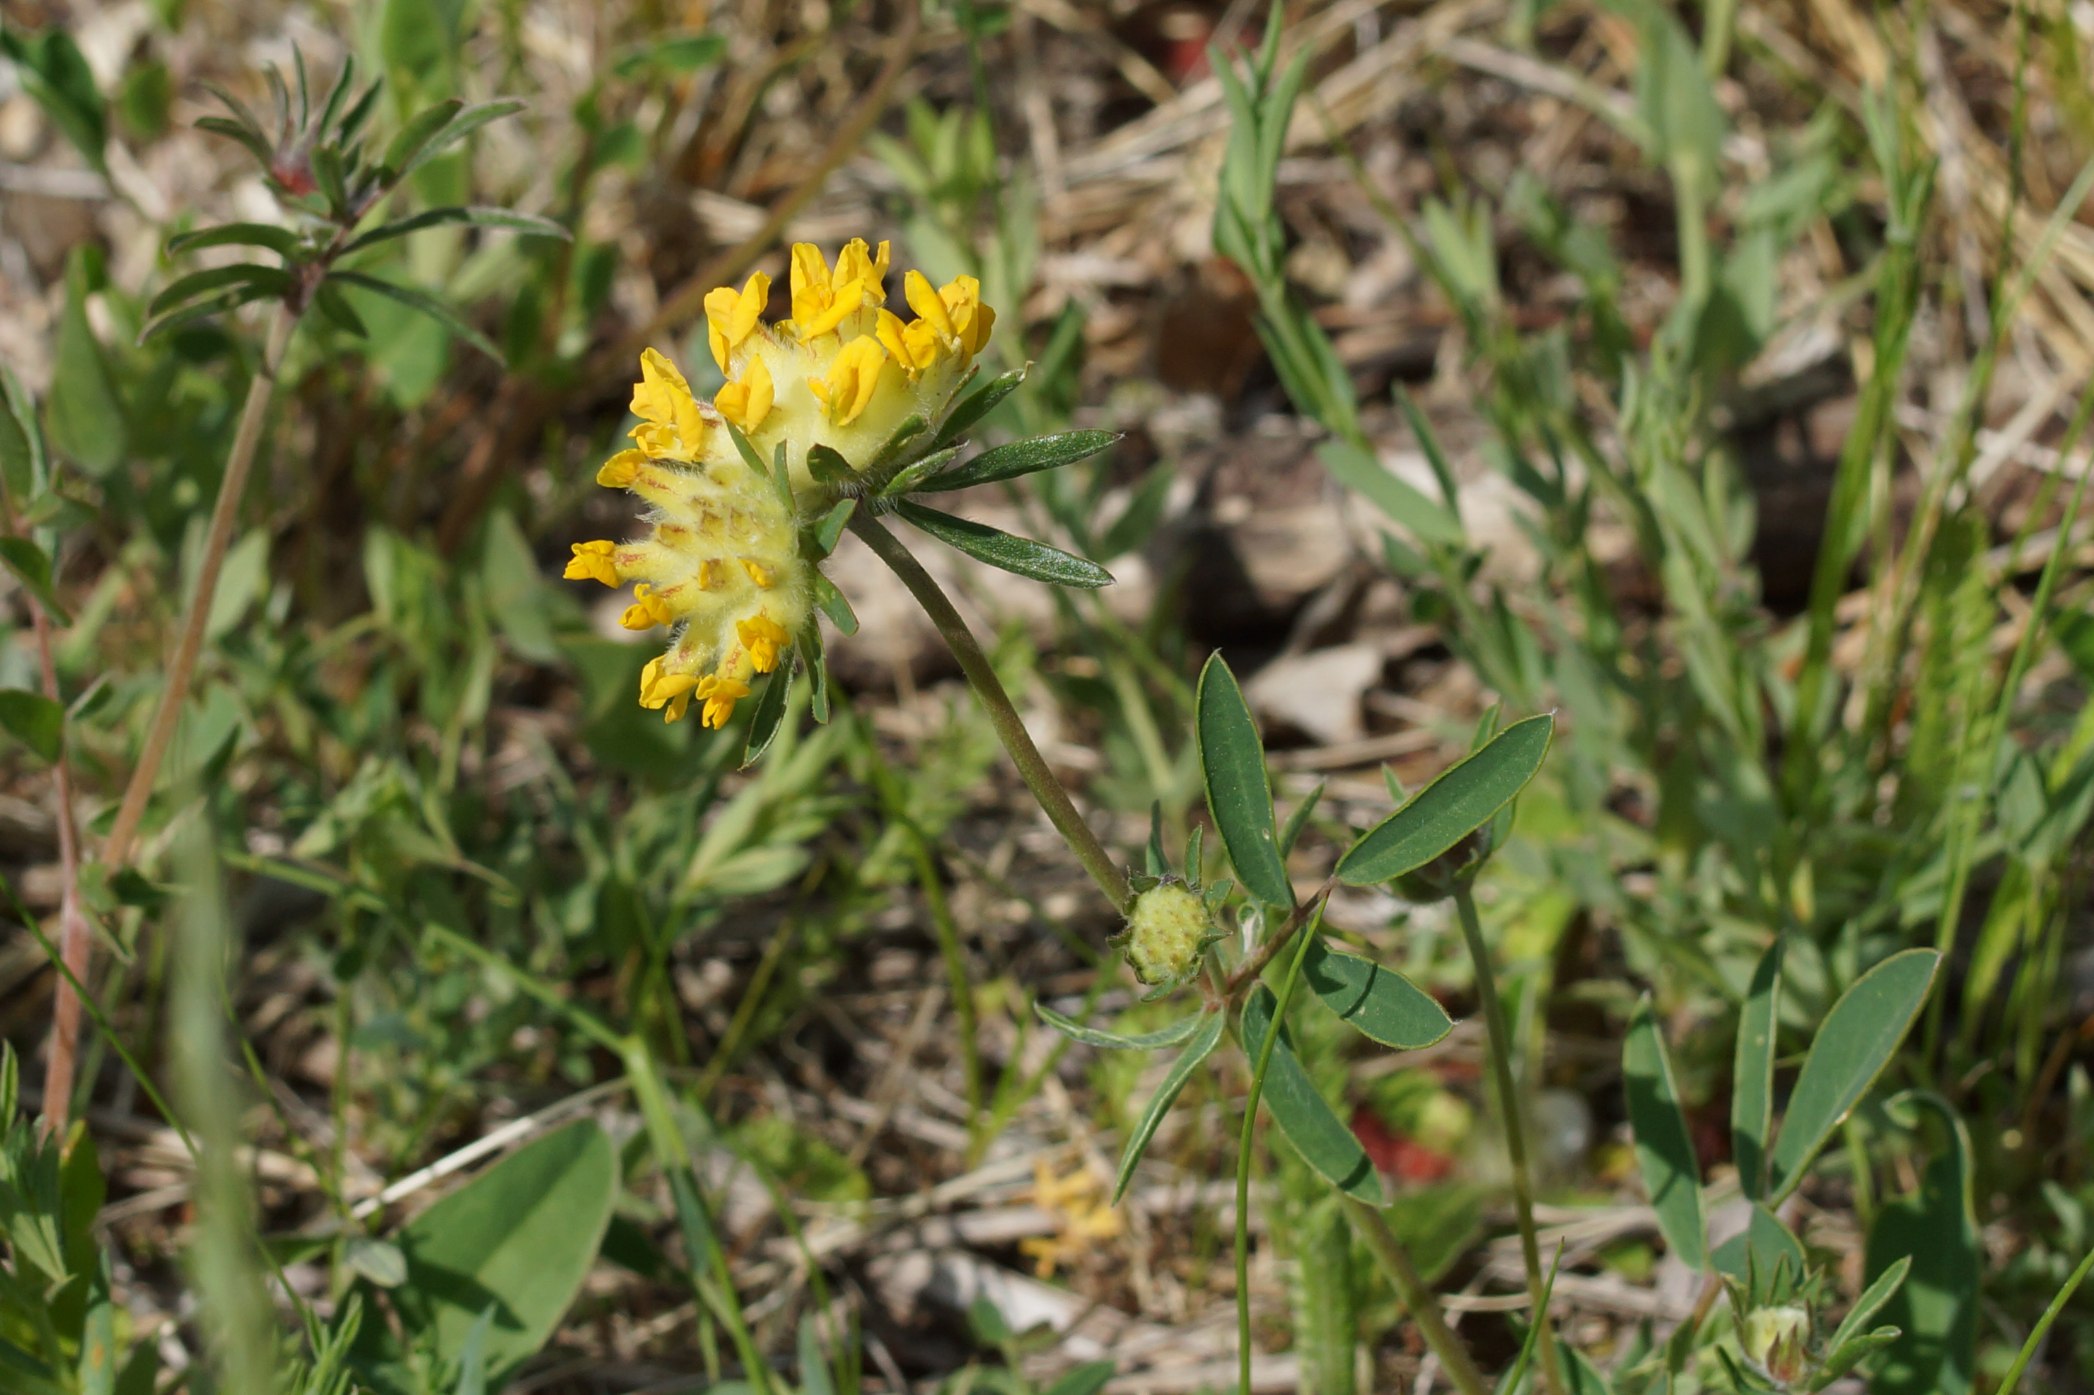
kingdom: Plantae
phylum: Tracheophyta
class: Magnoliopsida
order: Fabales
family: Fabaceae
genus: Anthyllis
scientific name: Anthyllis vulneraria
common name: Rundbælg
